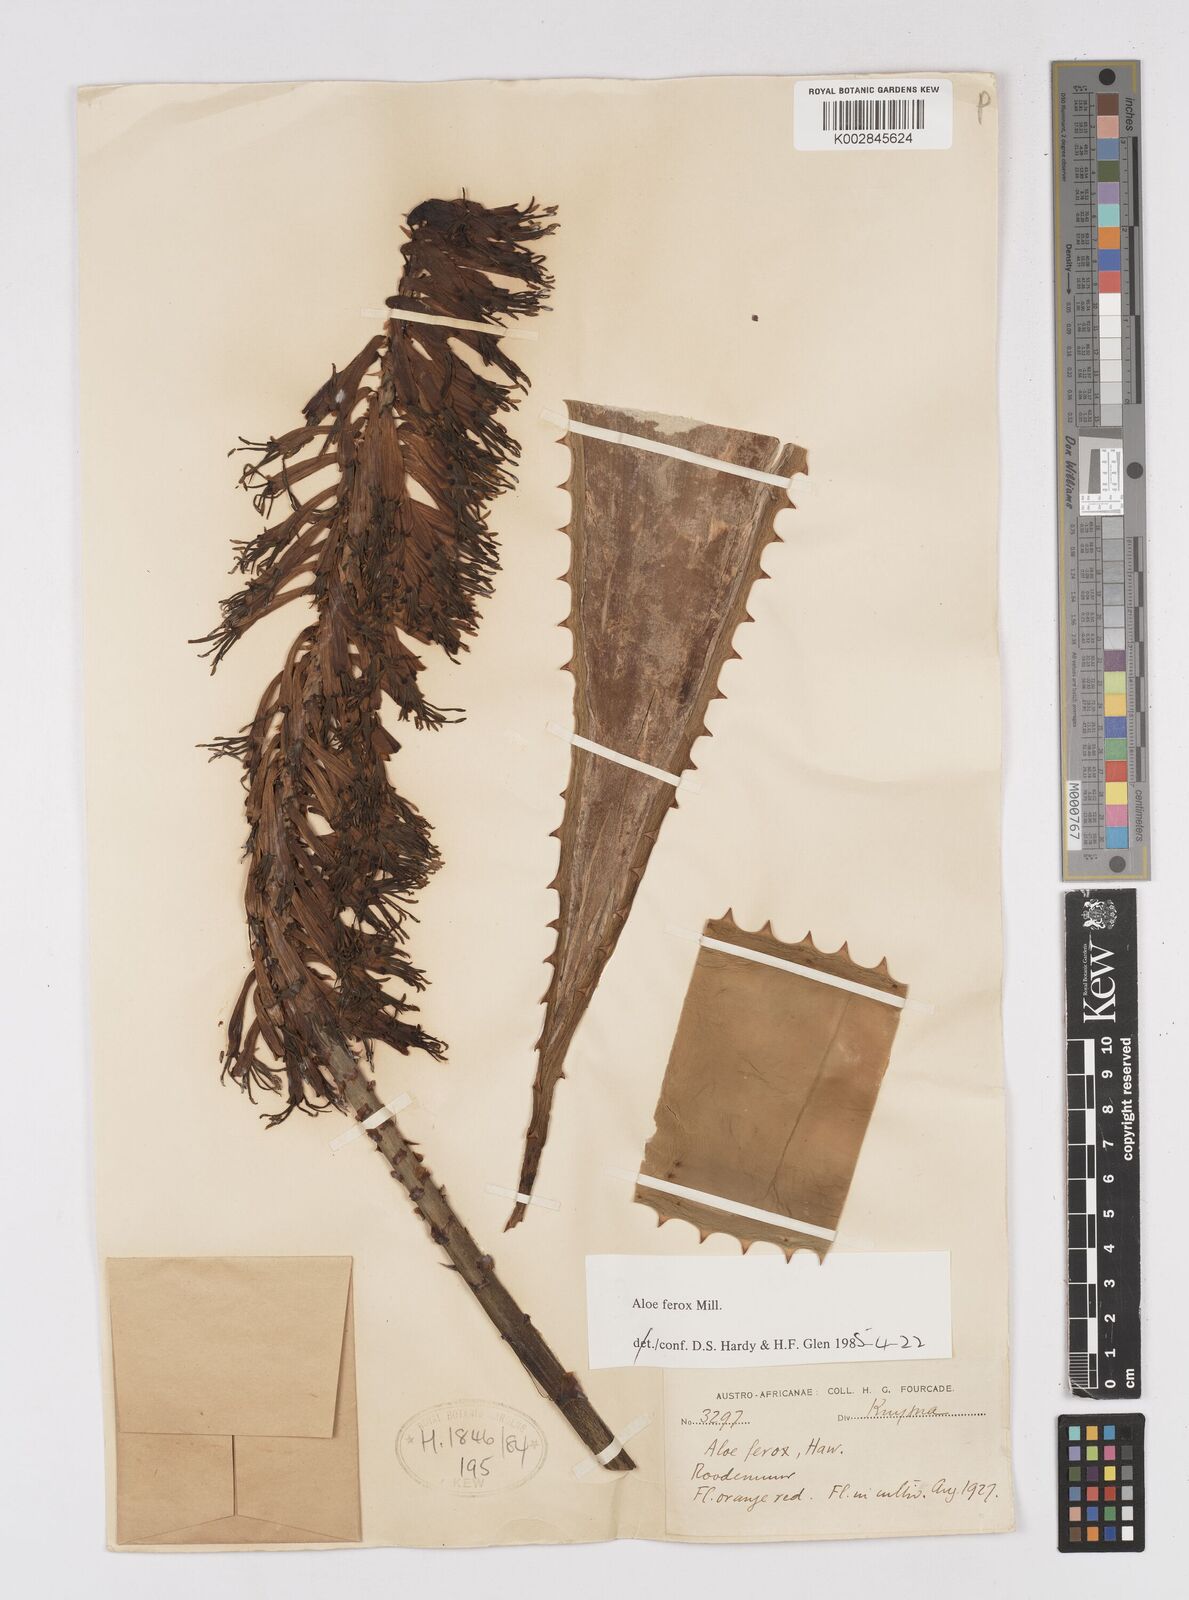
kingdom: Plantae
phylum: Tracheophyta
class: Liliopsida
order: Asparagales
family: Asphodelaceae
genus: Aloe
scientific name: Aloe ferox
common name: Bitter aloe
